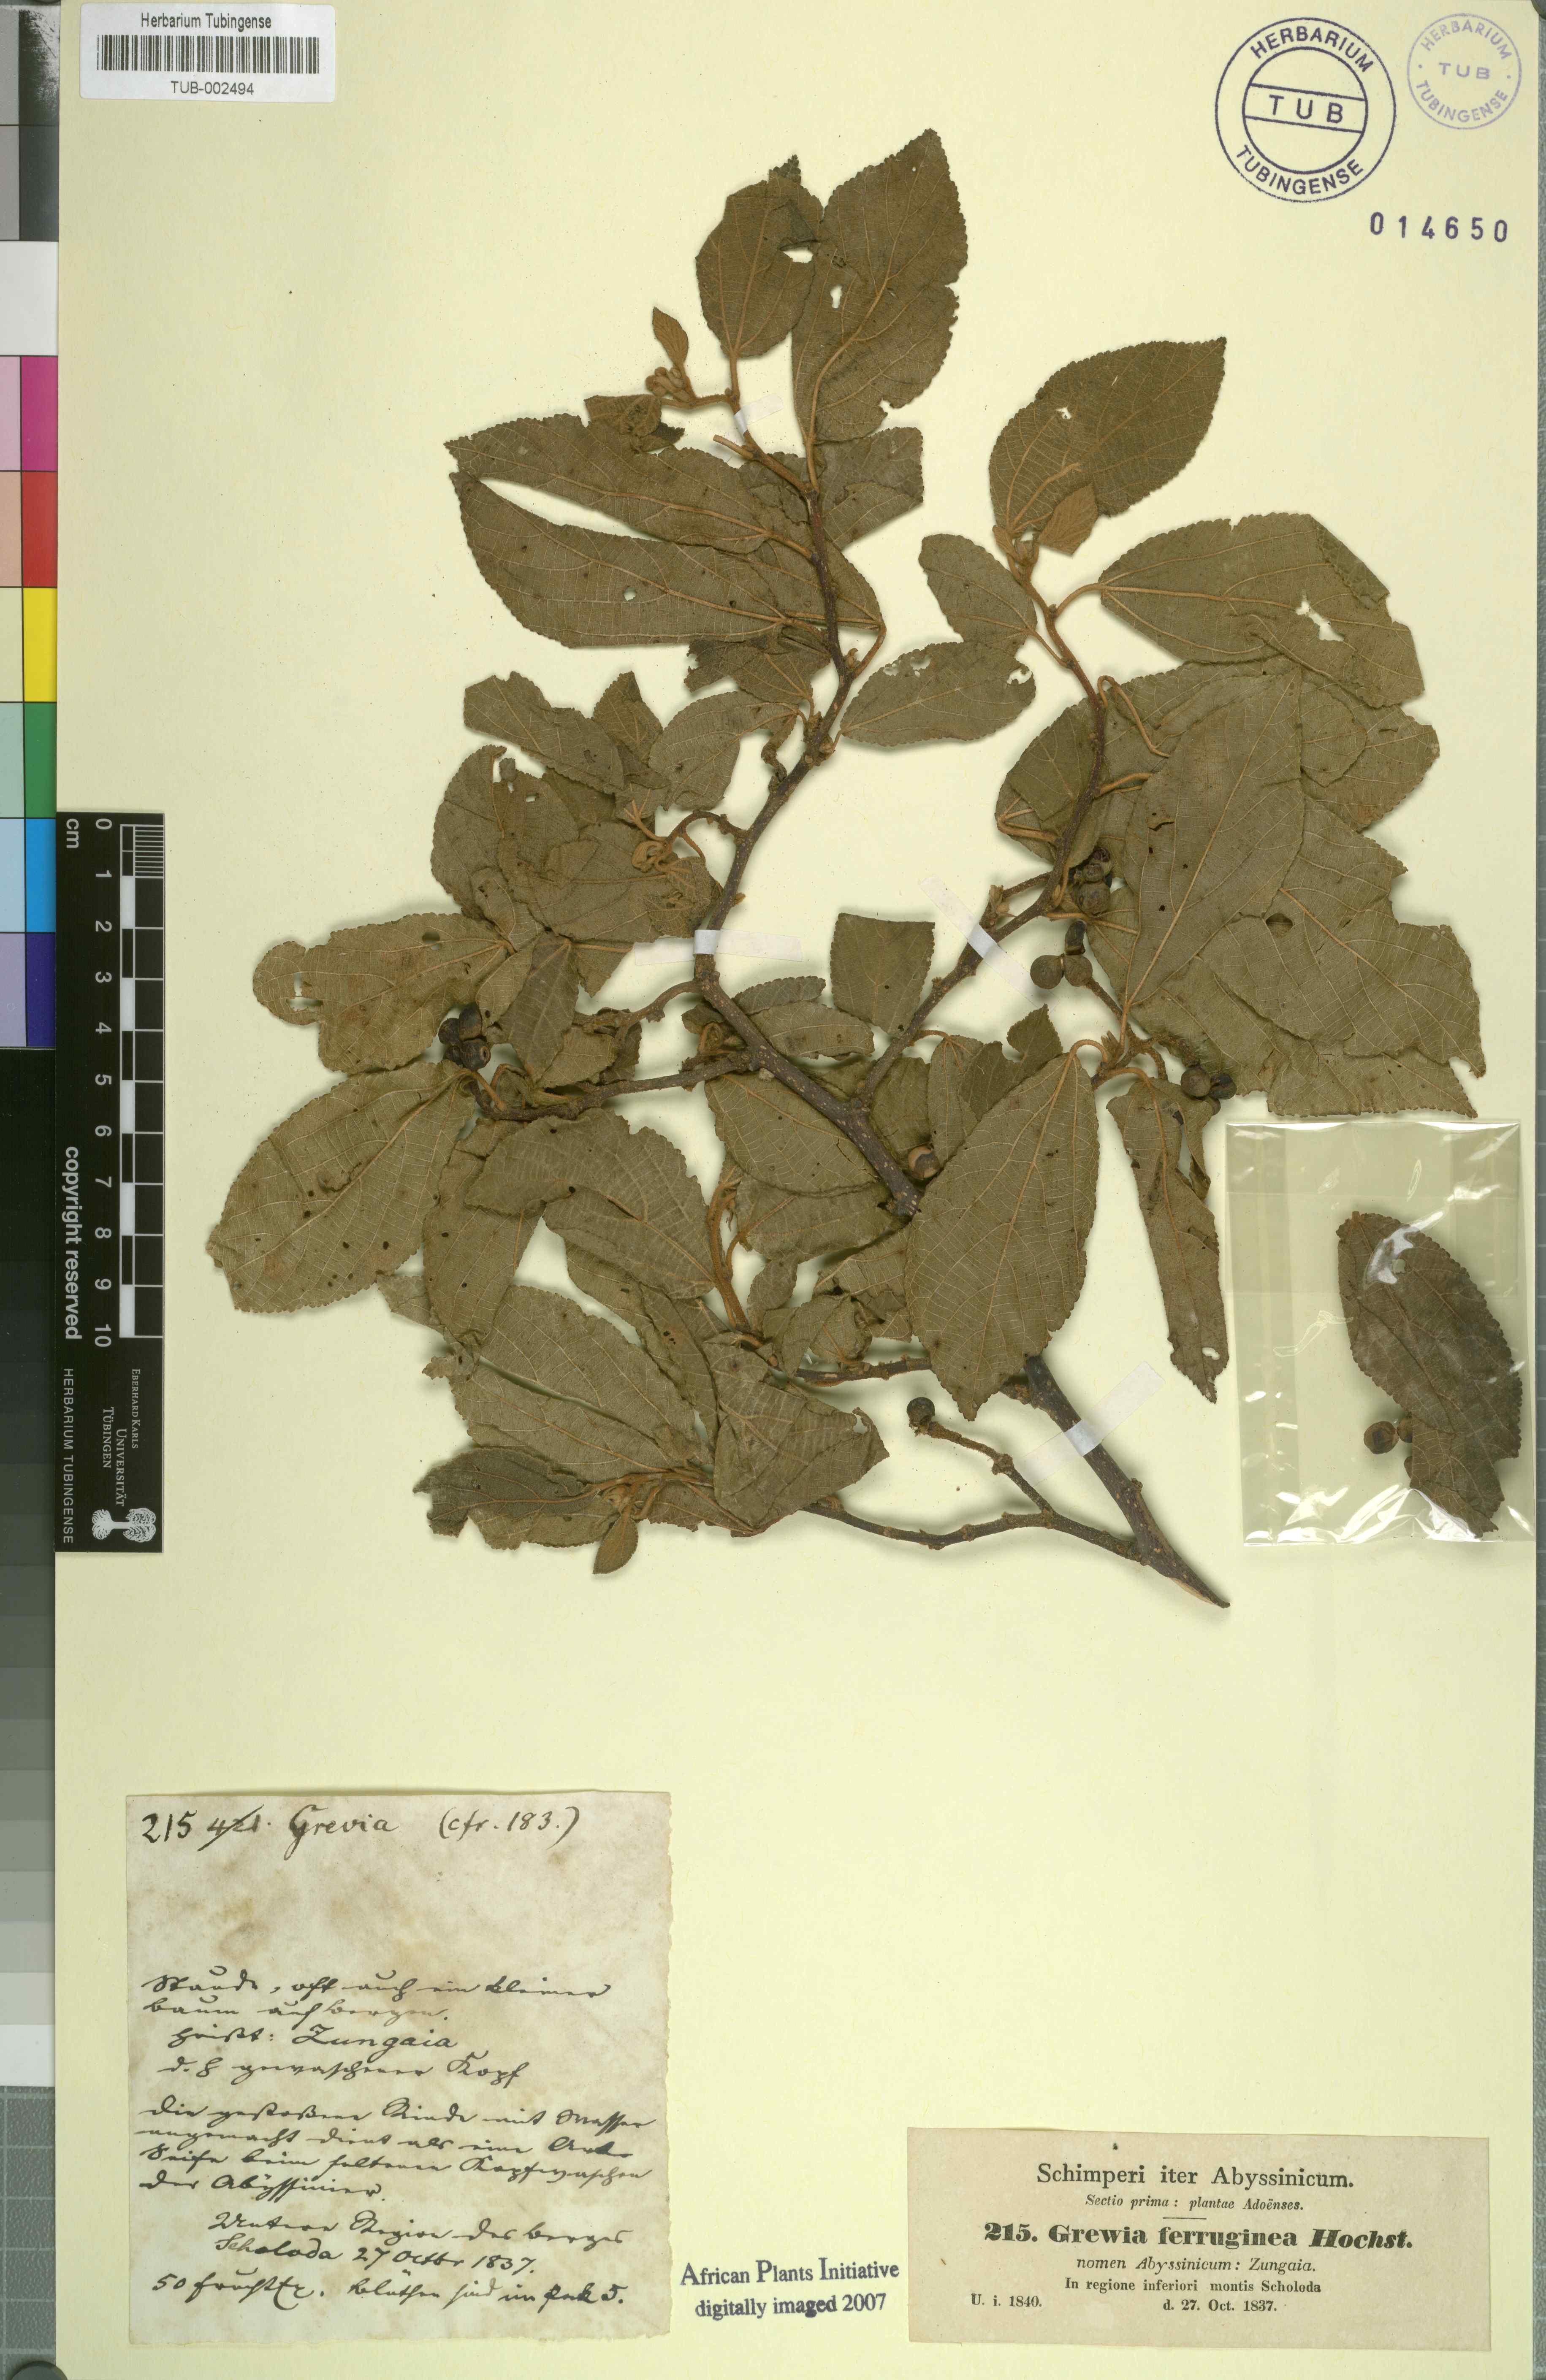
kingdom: Plantae
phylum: Tracheophyta
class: Magnoliopsida
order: Malvales
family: Malvaceae
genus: Grewia
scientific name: Grewia scabrida
